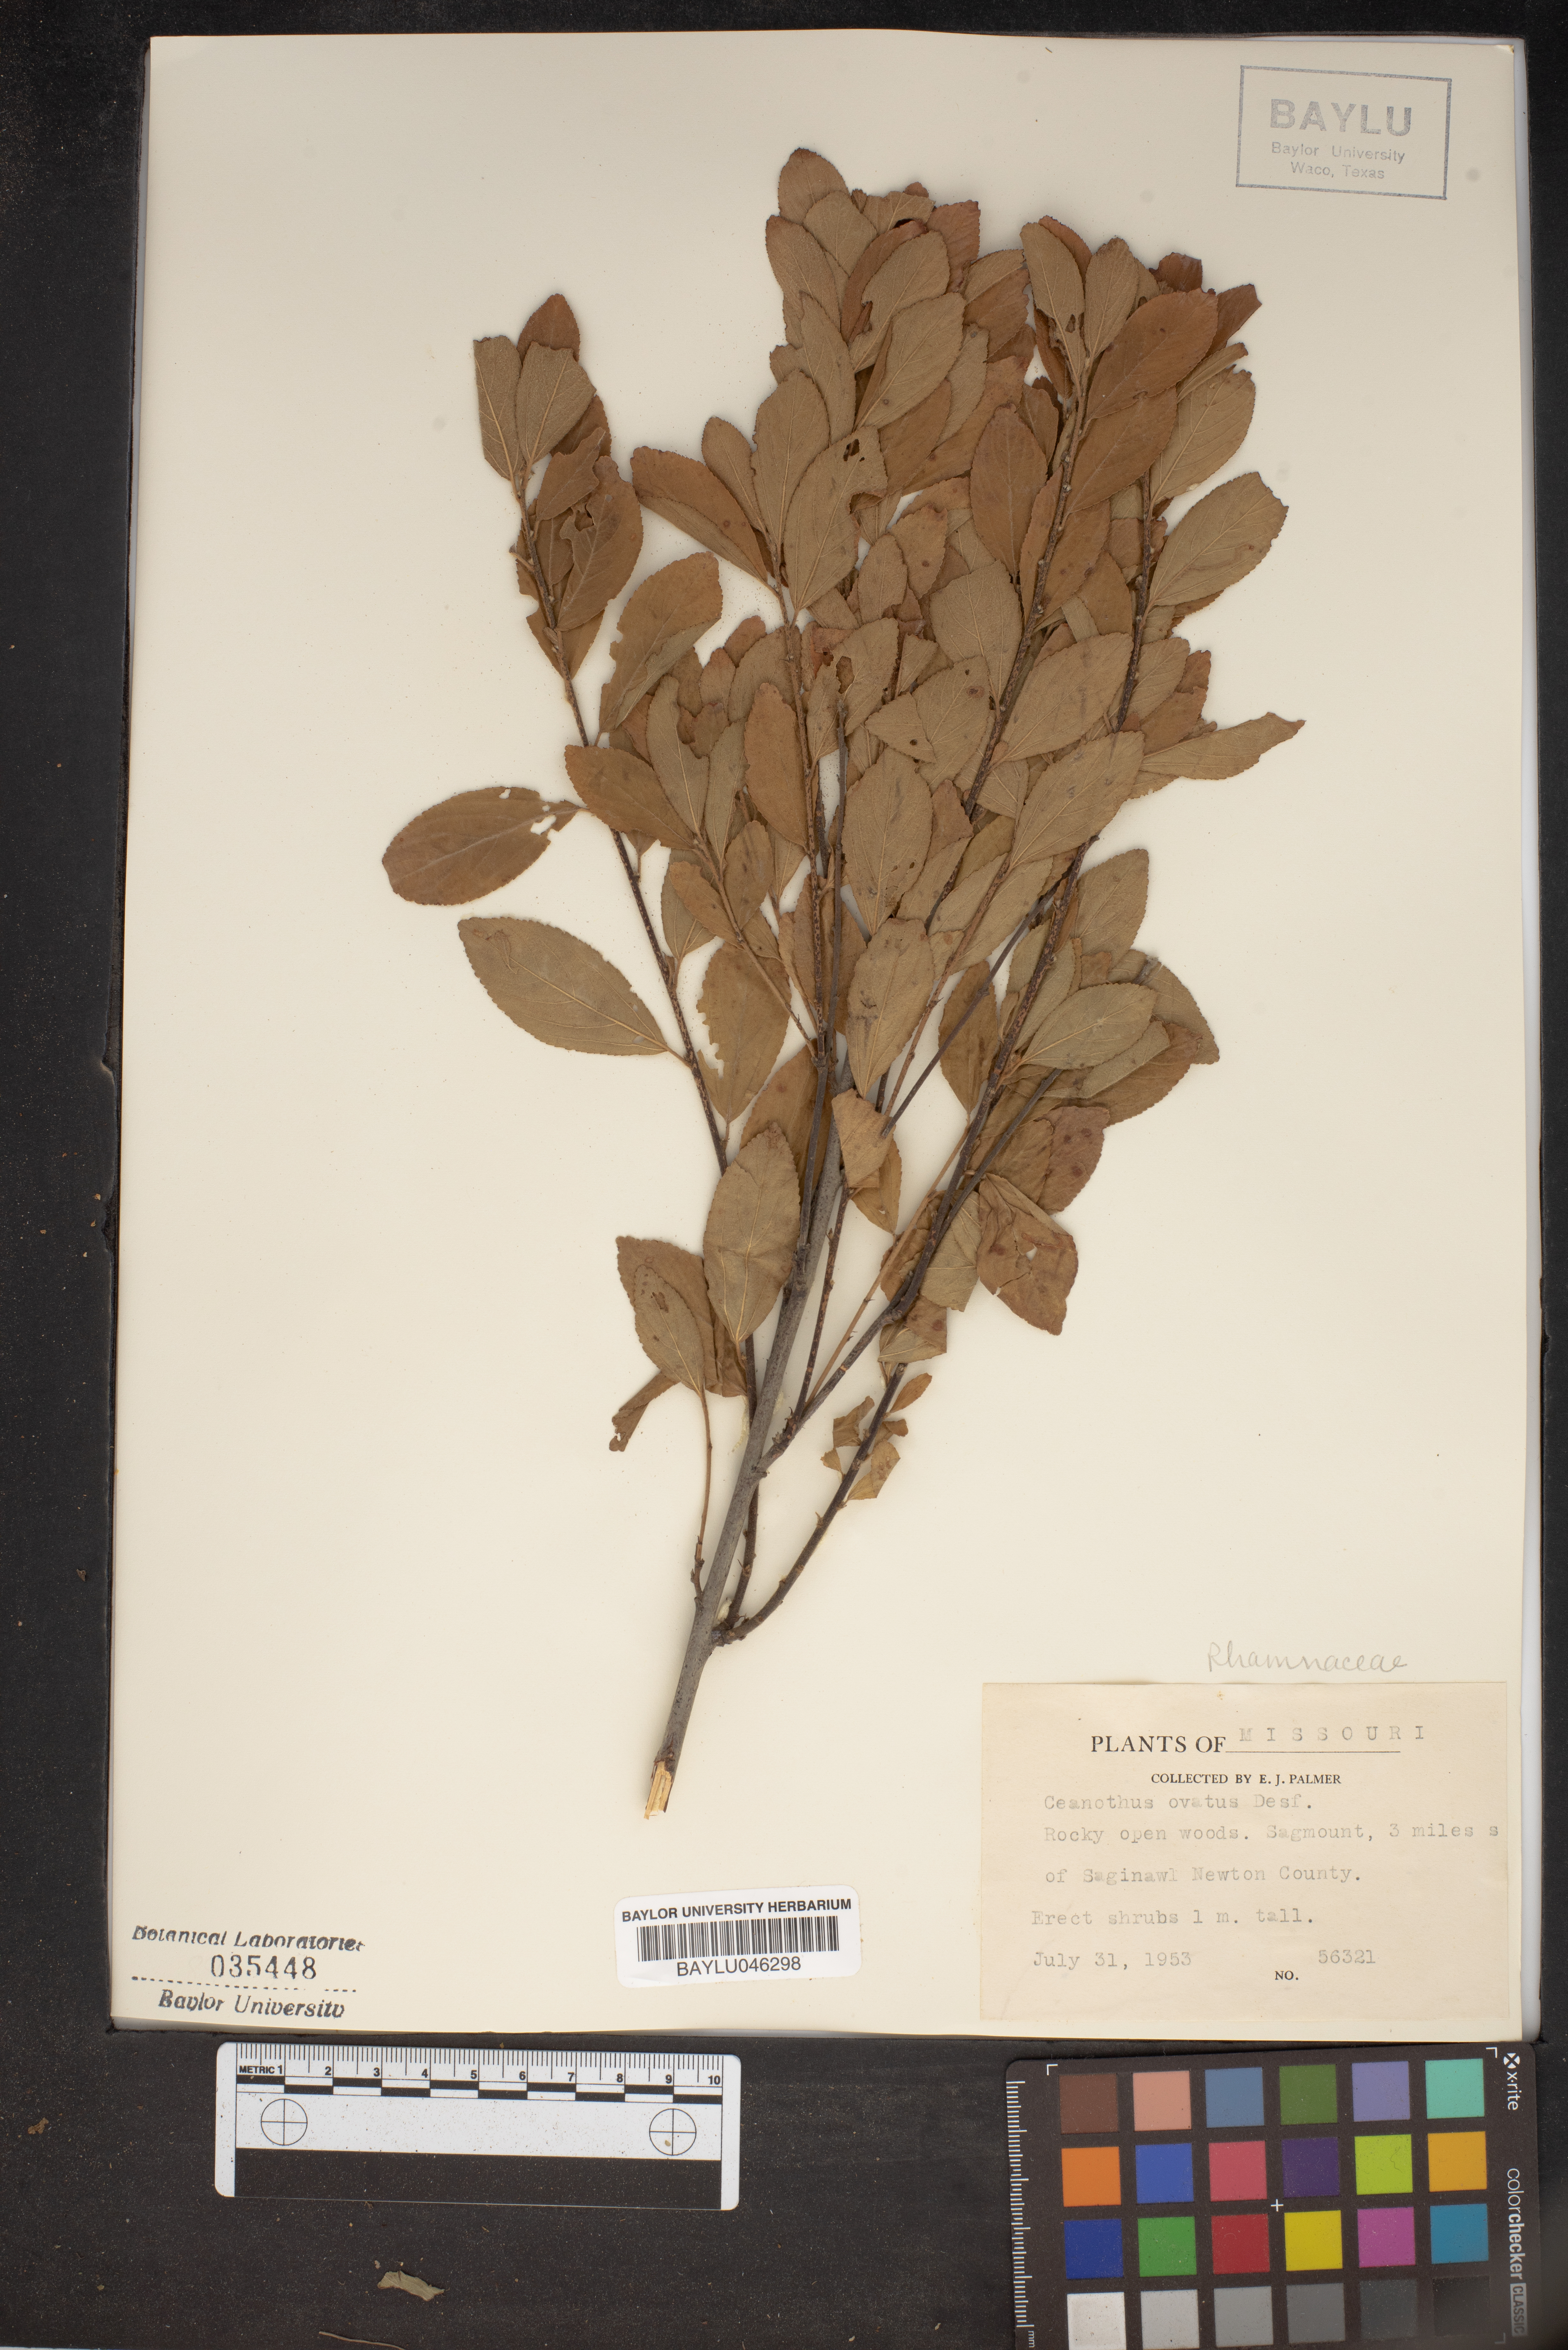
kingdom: Plantae
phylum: Tracheophyta
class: Magnoliopsida
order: Rosales
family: Rhamnaceae
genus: Ceanothus
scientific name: Ceanothus herbaceus
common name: Inland ceanothus
